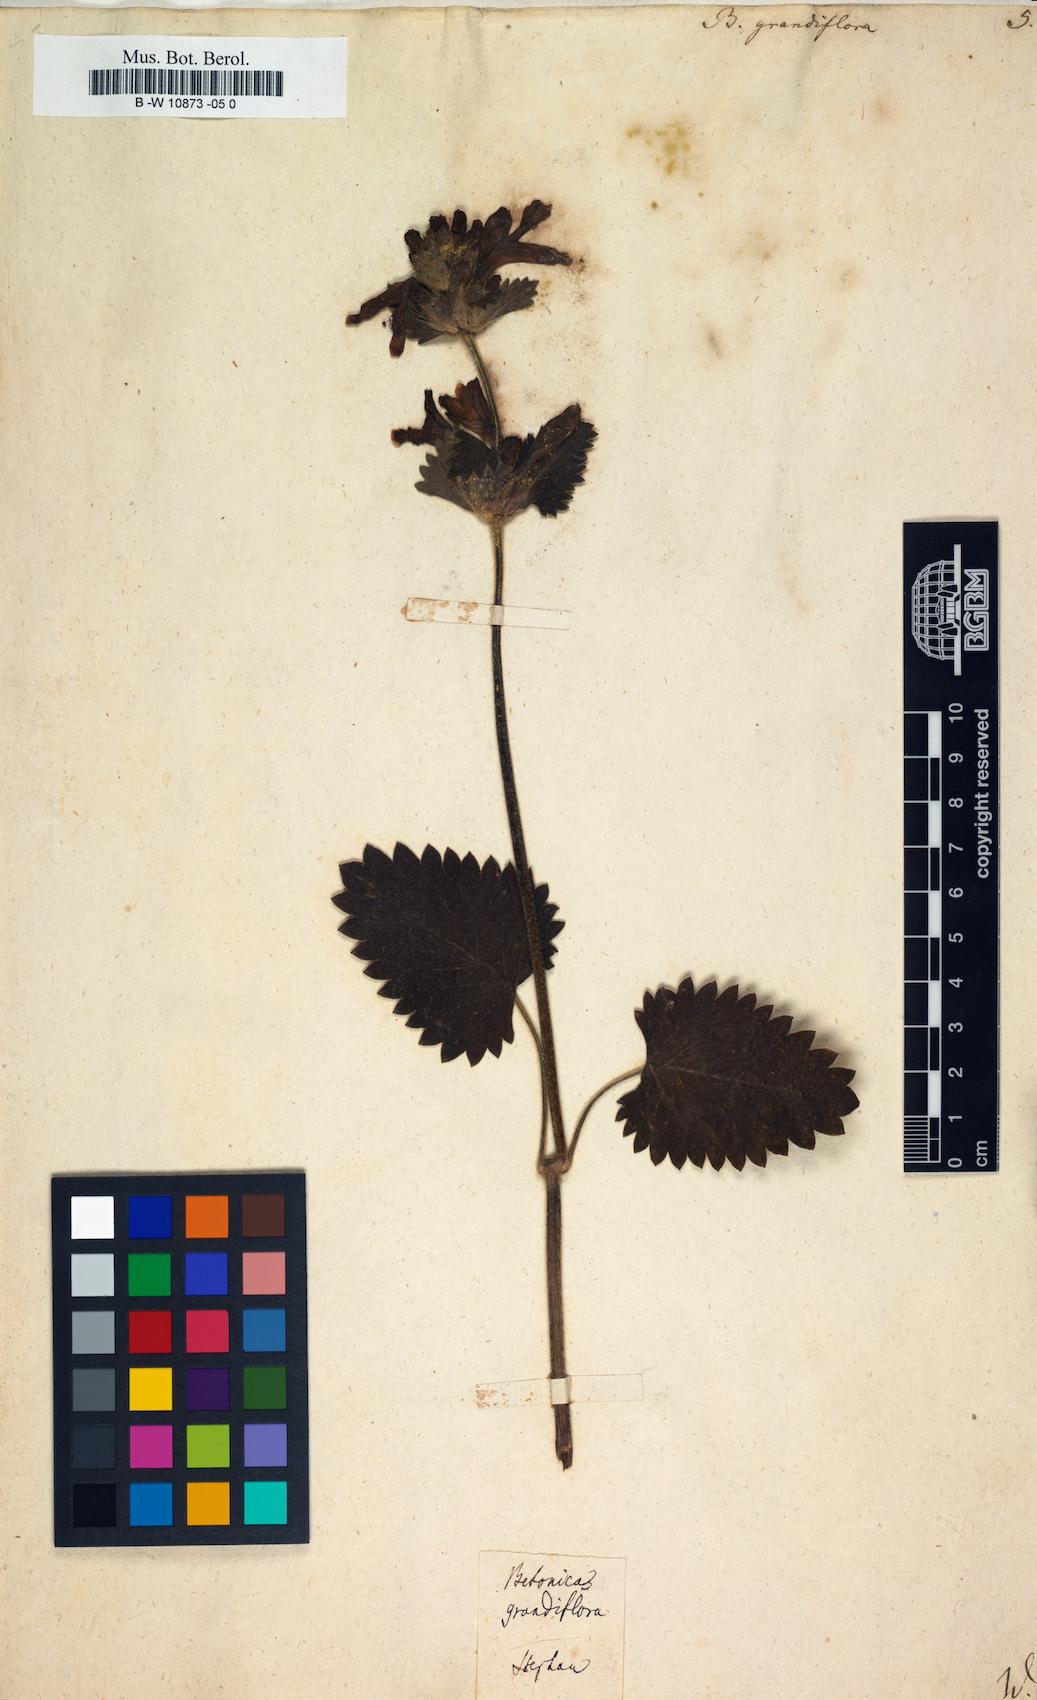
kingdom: Plantae
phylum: Tracheophyta
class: Magnoliopsida
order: Lamiales
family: Lamiaceae
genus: Betonica
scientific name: Betonica
